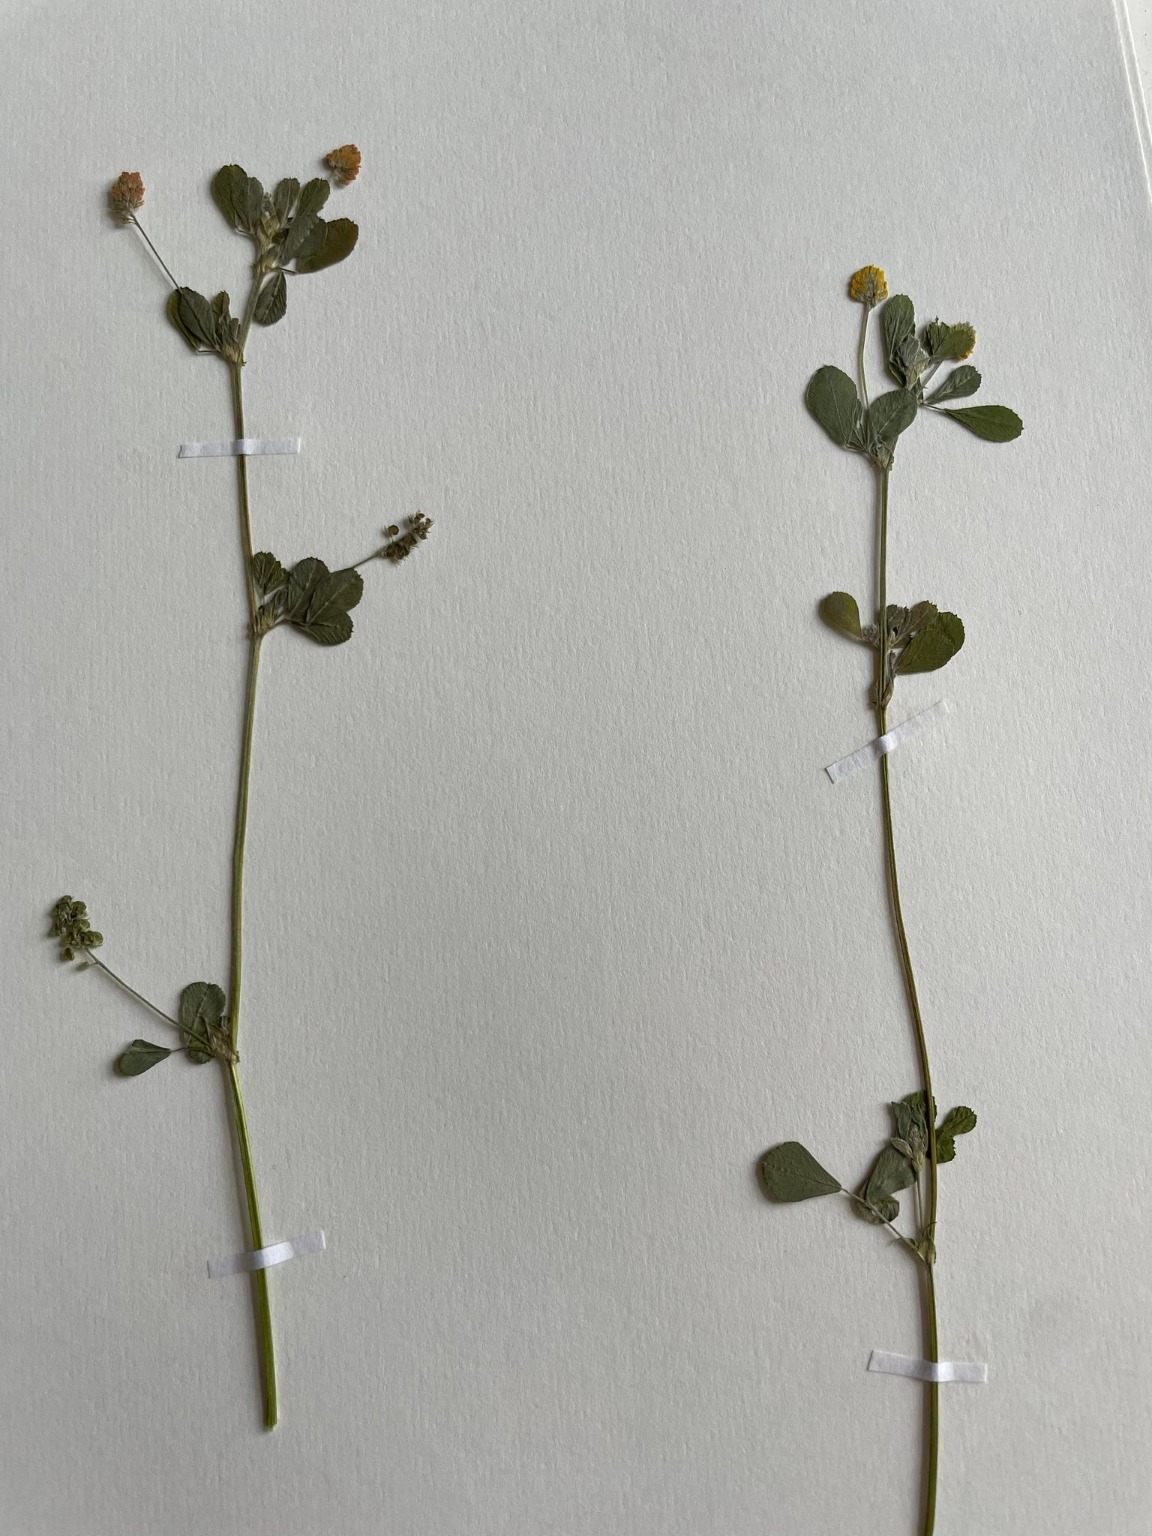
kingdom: Plantae
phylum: Tracheophyta
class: Magnoliopsida
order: Fabales
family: Fabaceae
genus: Medicago
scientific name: Medicago lupulina
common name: Humle-sneglebælg
